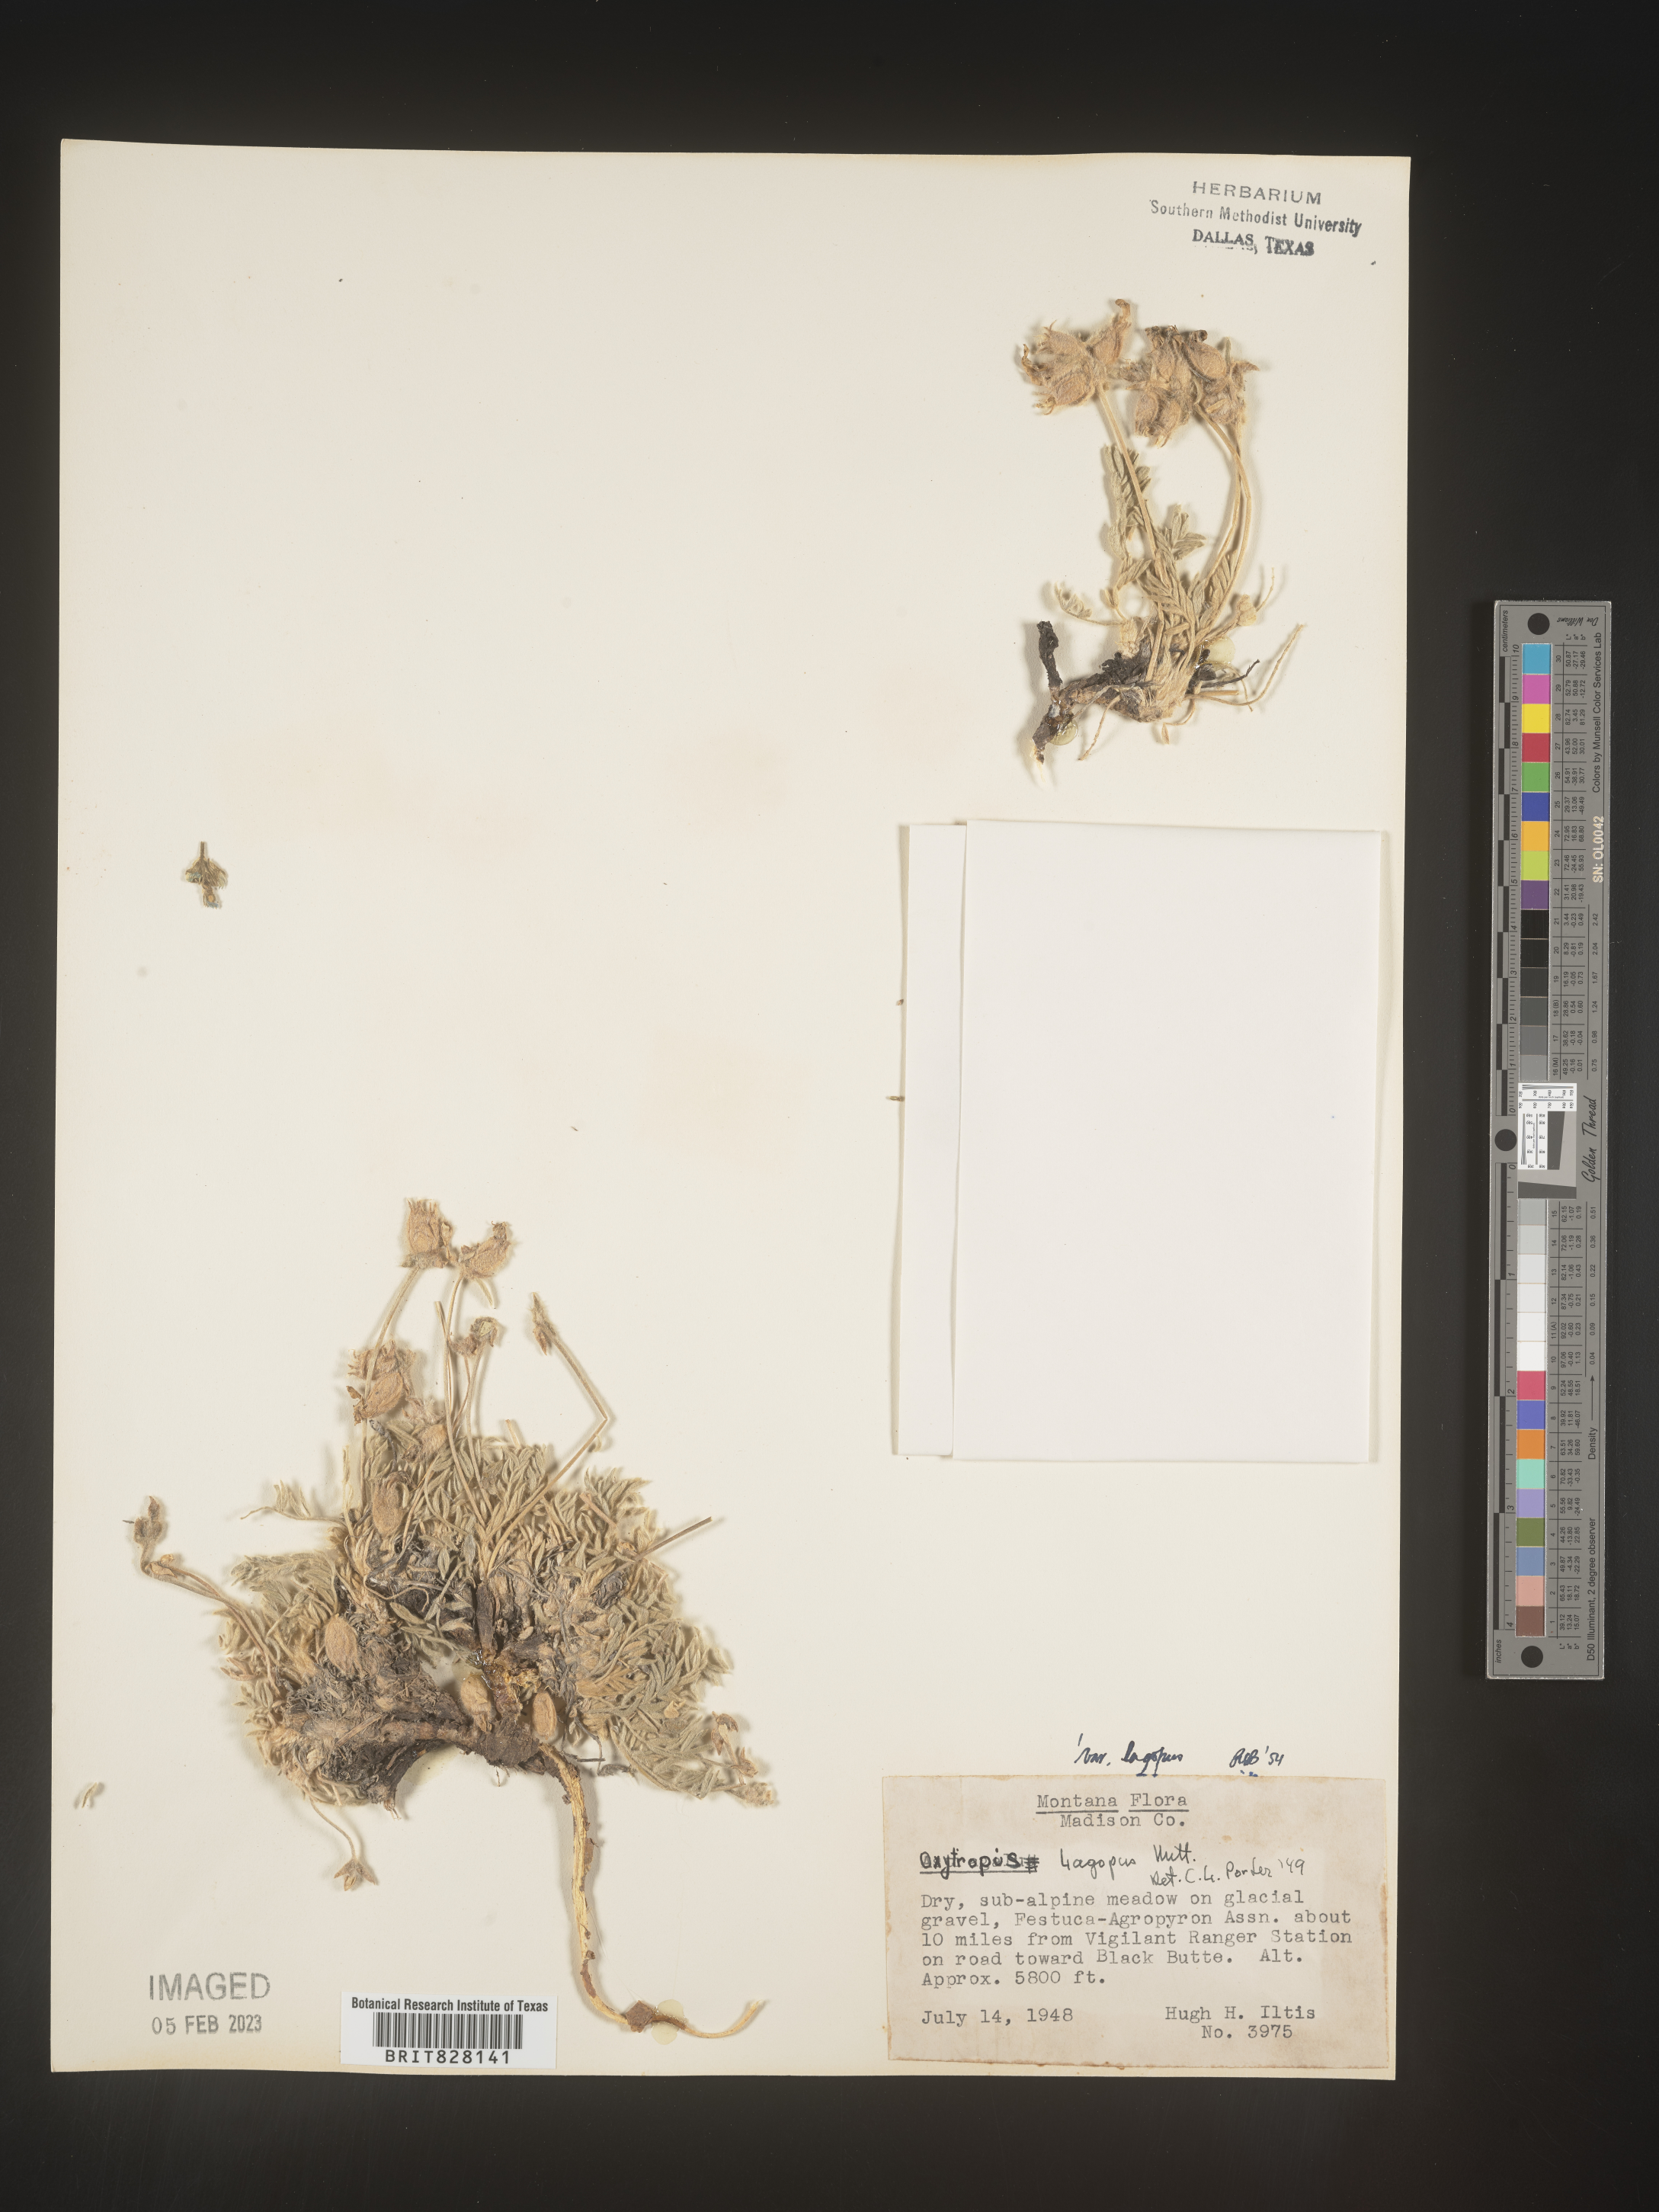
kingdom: Plantae
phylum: Tracheophyta
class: Magnoliopsida
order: Fabales
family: Fabaceae
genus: Oxytropis
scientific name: Oxytropis
